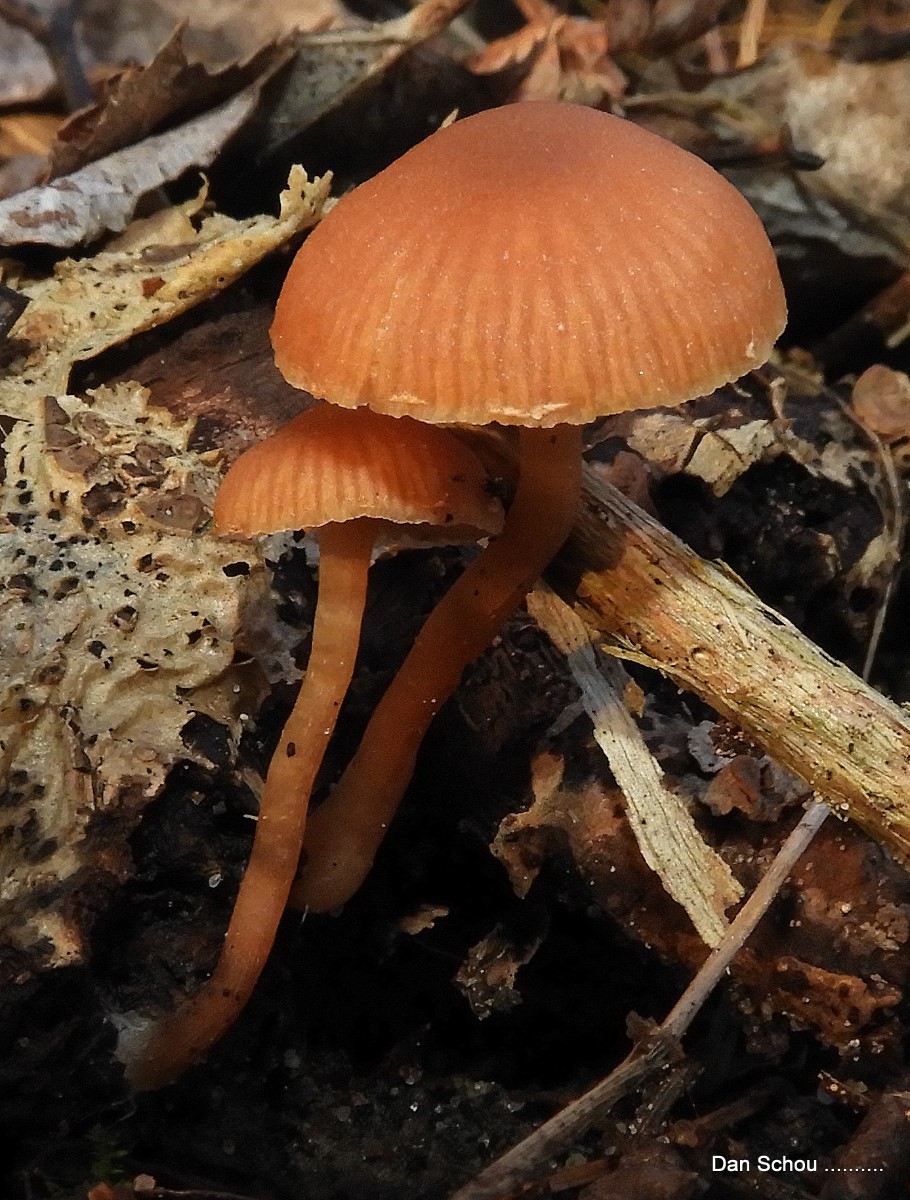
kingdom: Fungi
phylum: Basidiomycota
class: Agaricomycetes
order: Agaricales
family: Tubariaceae
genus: Tubaria
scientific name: Tubaria furfuracea
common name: kliddet fnughat
